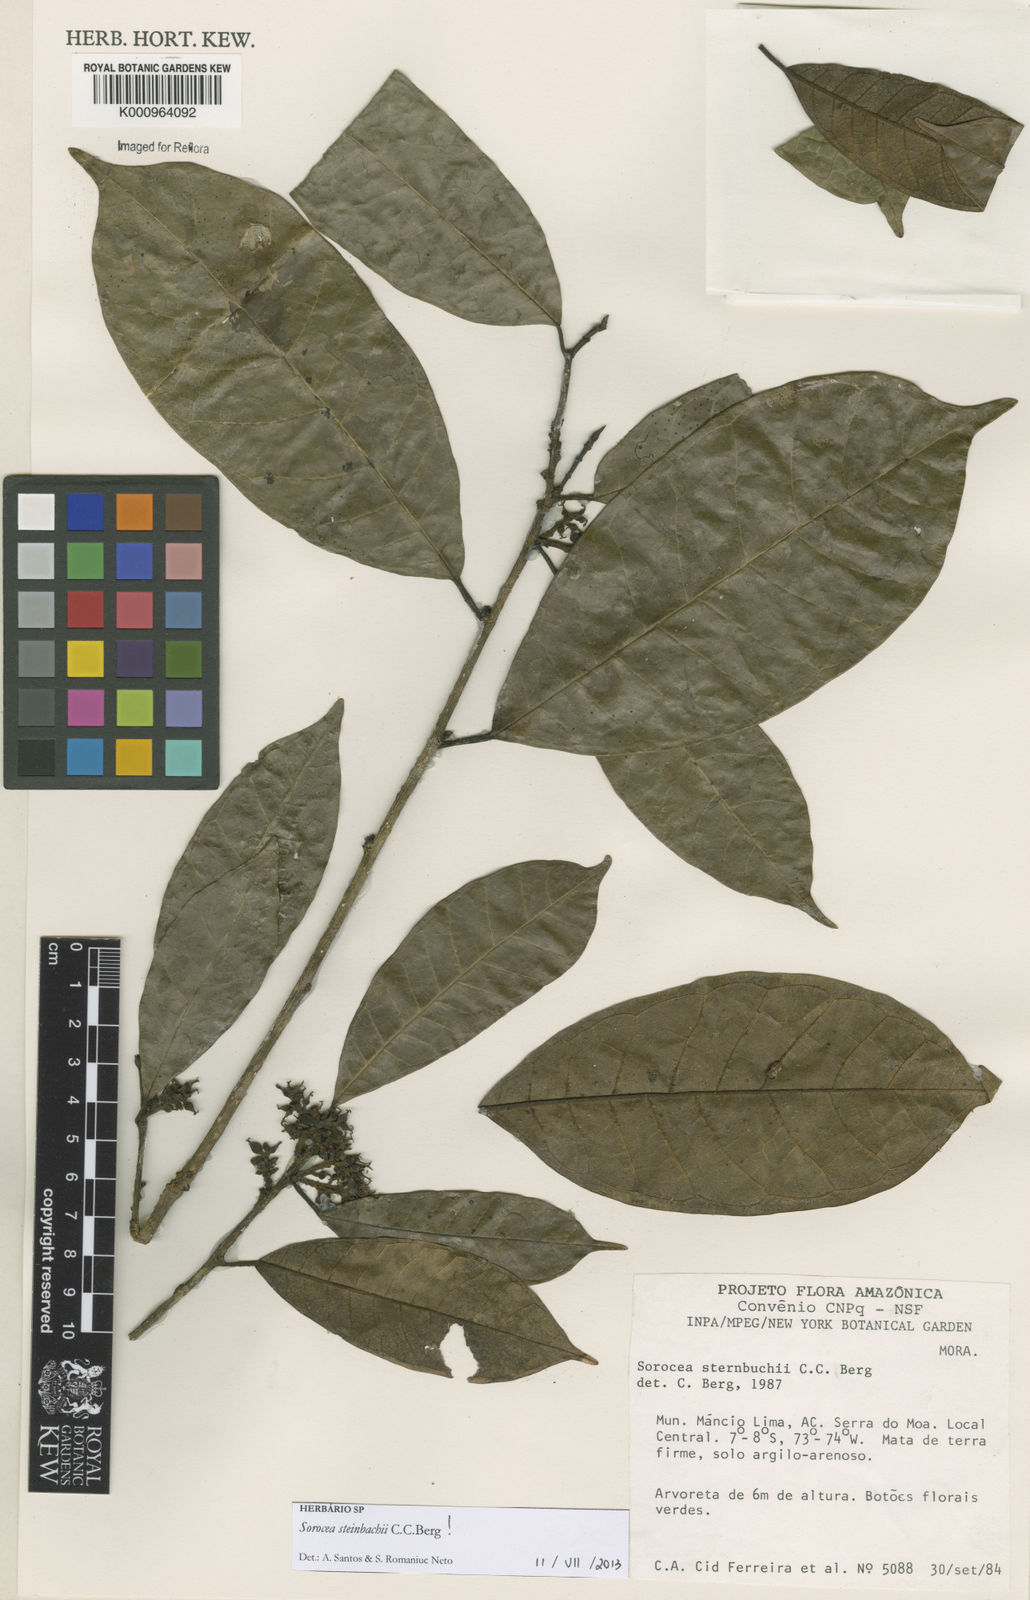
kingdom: Plantae
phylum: Tracheophyta
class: Magnoliopsida
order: Rosales
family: Moraceae
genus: Sorocea
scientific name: Sorocea steinbachii
